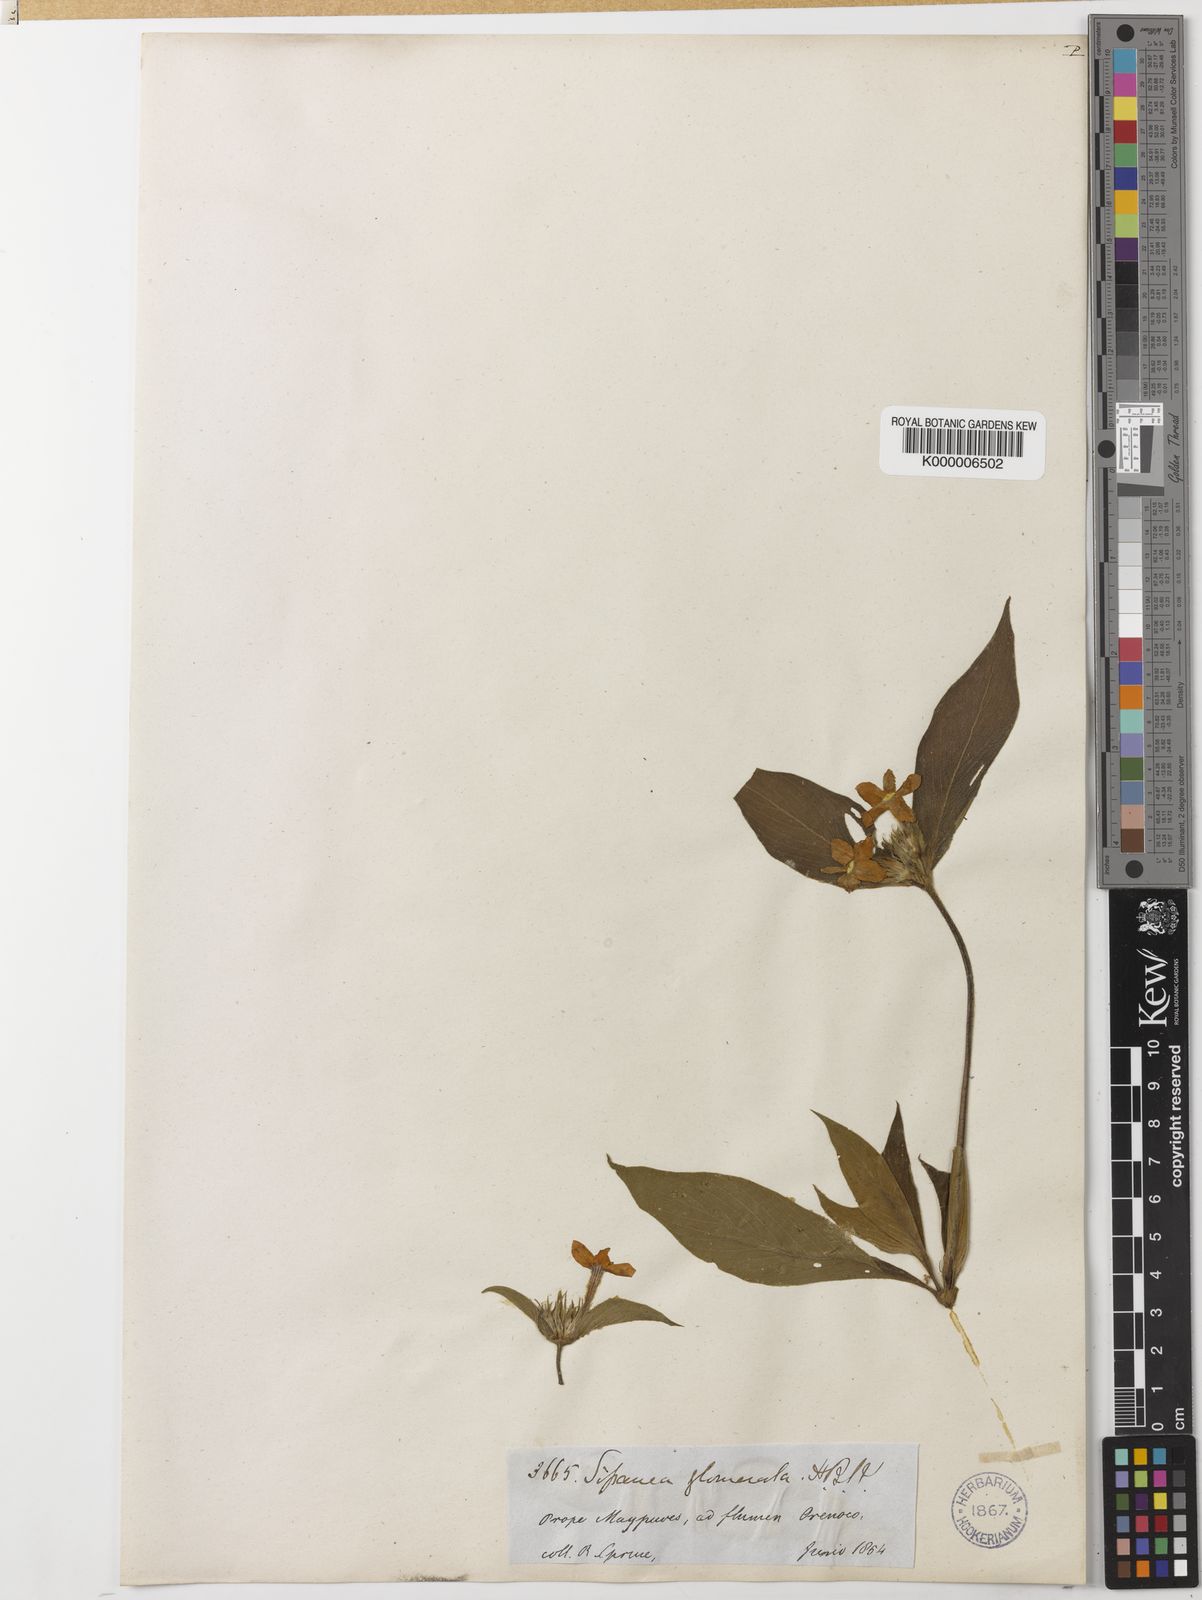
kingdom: Plantae
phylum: Tracheophyta
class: Magnoliopsida
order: Gentianales
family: Rubiaceae
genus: Sipanea
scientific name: Sipanea
